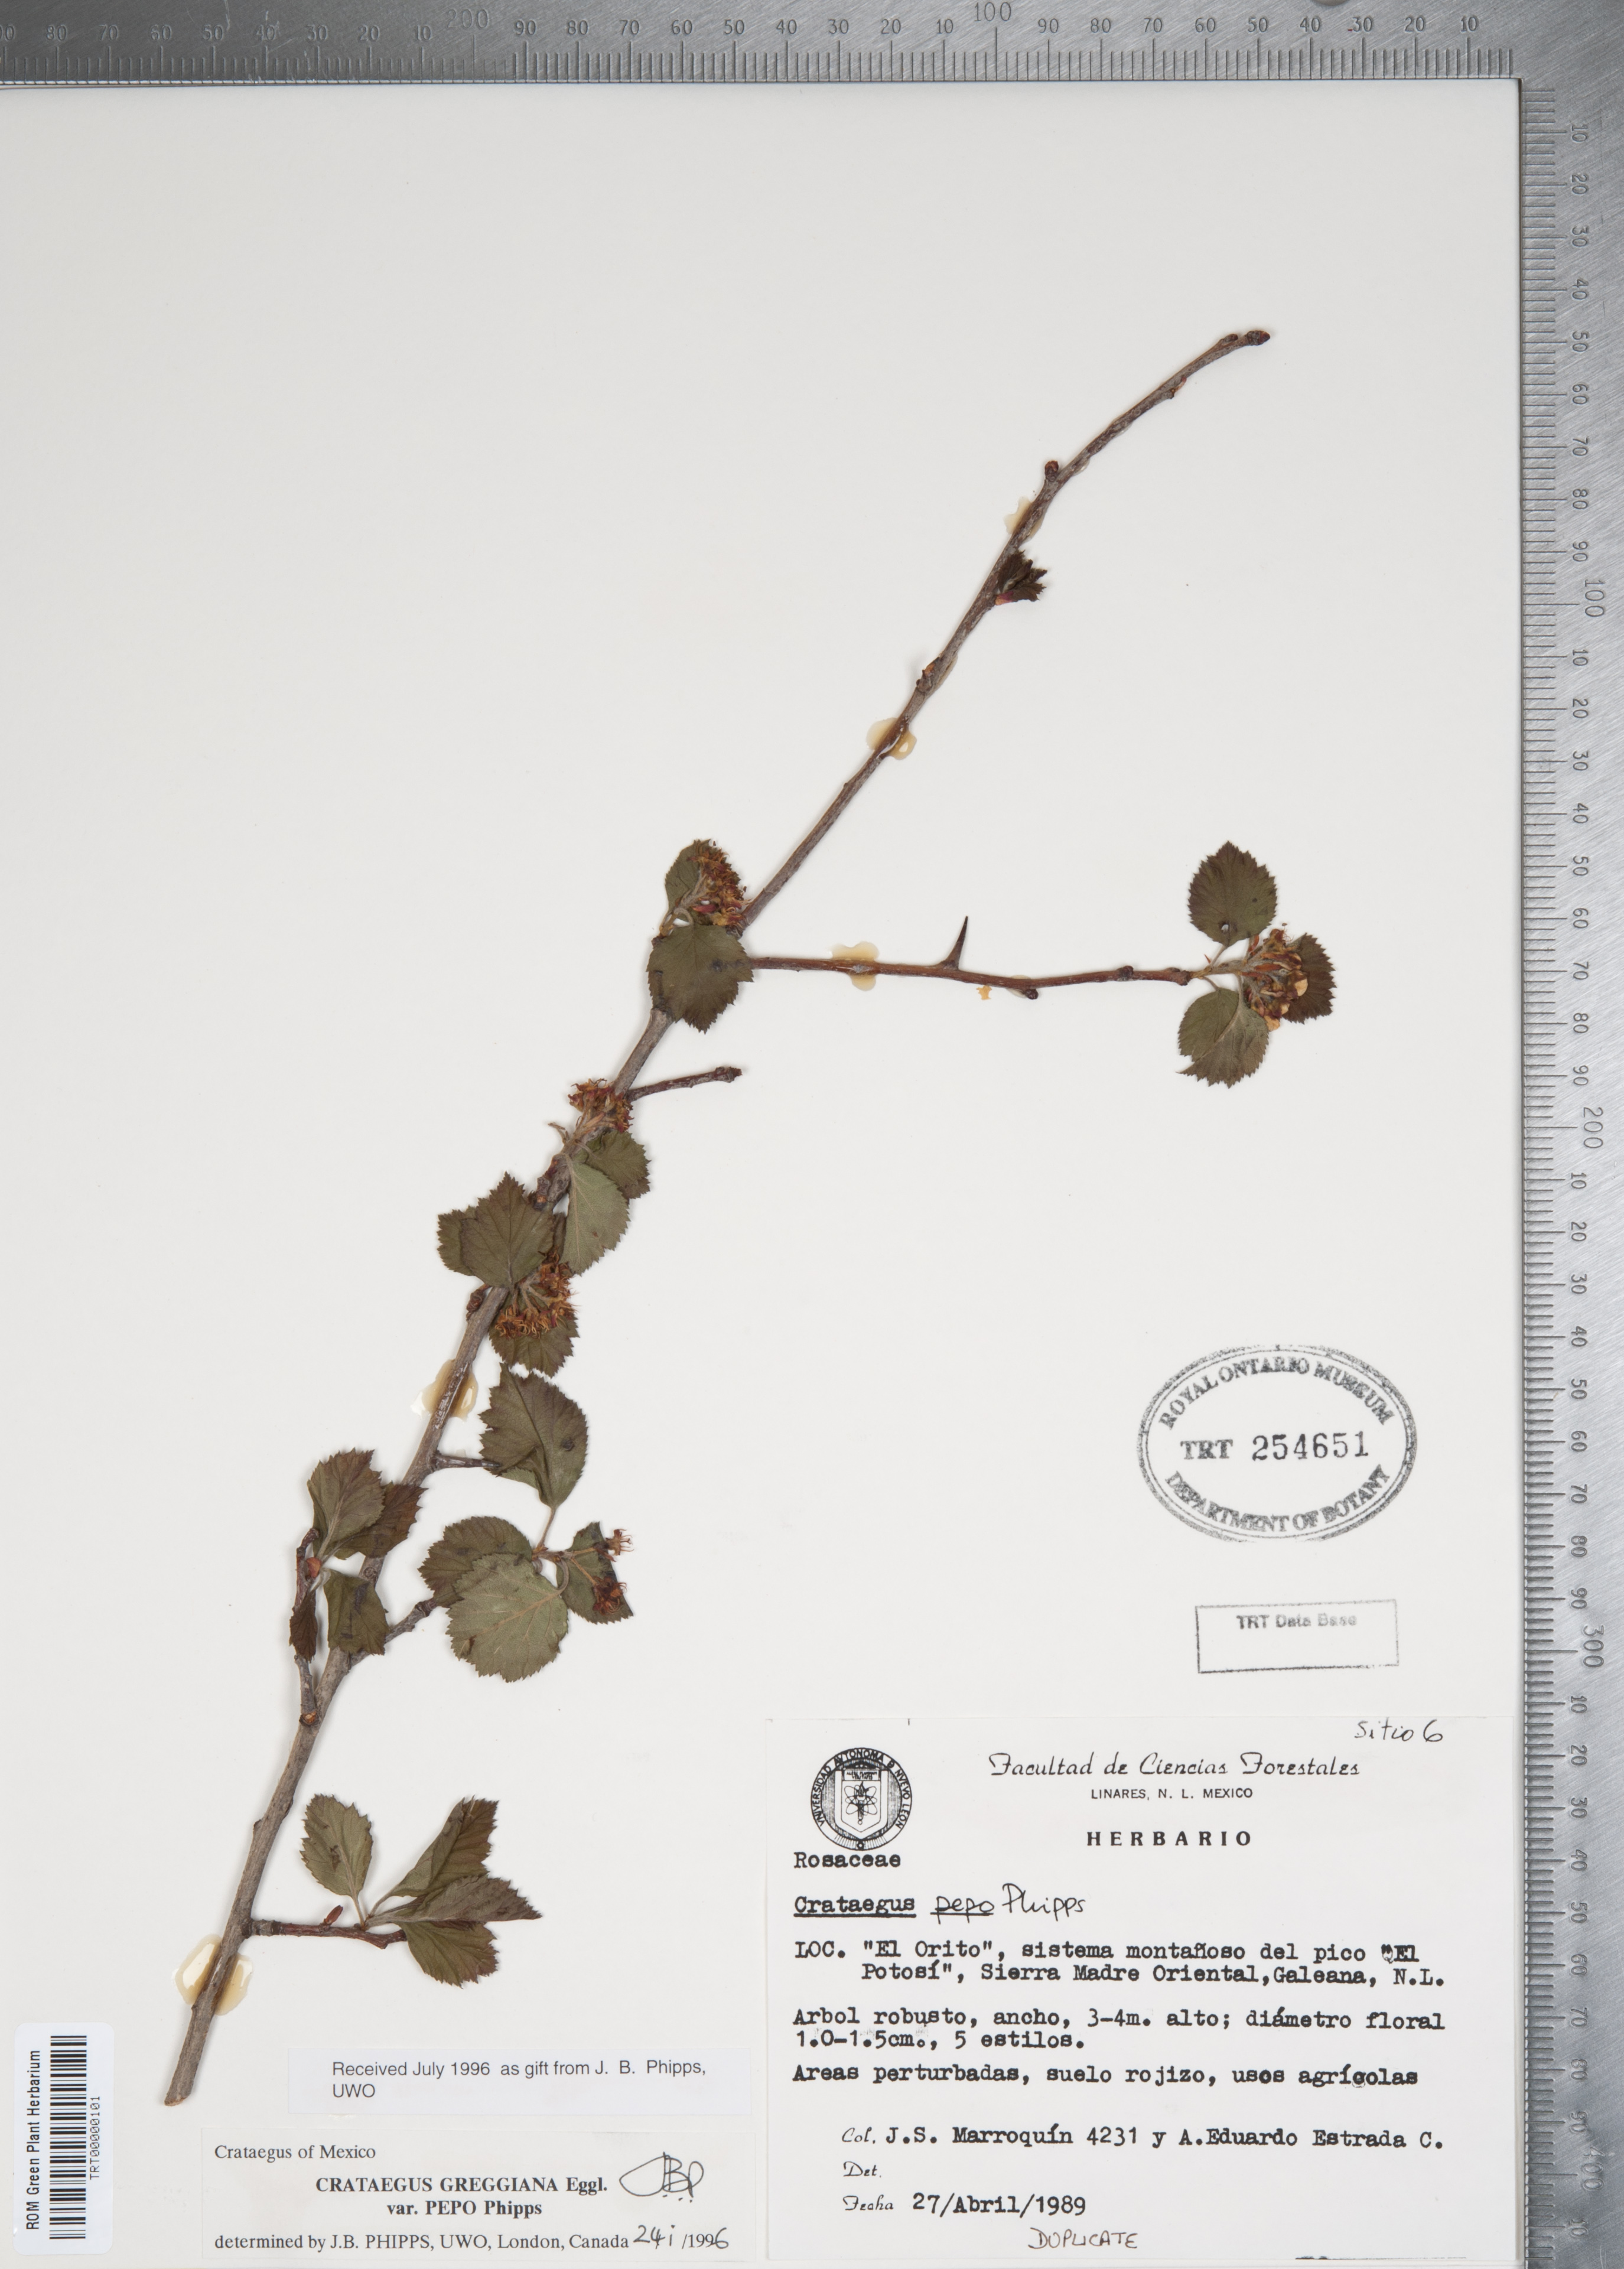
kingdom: Plantae
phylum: Tracheophyta
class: Magnoliopsida
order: Rosales
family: Rosaceae
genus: Crataegus
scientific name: Crataegus greggiana
